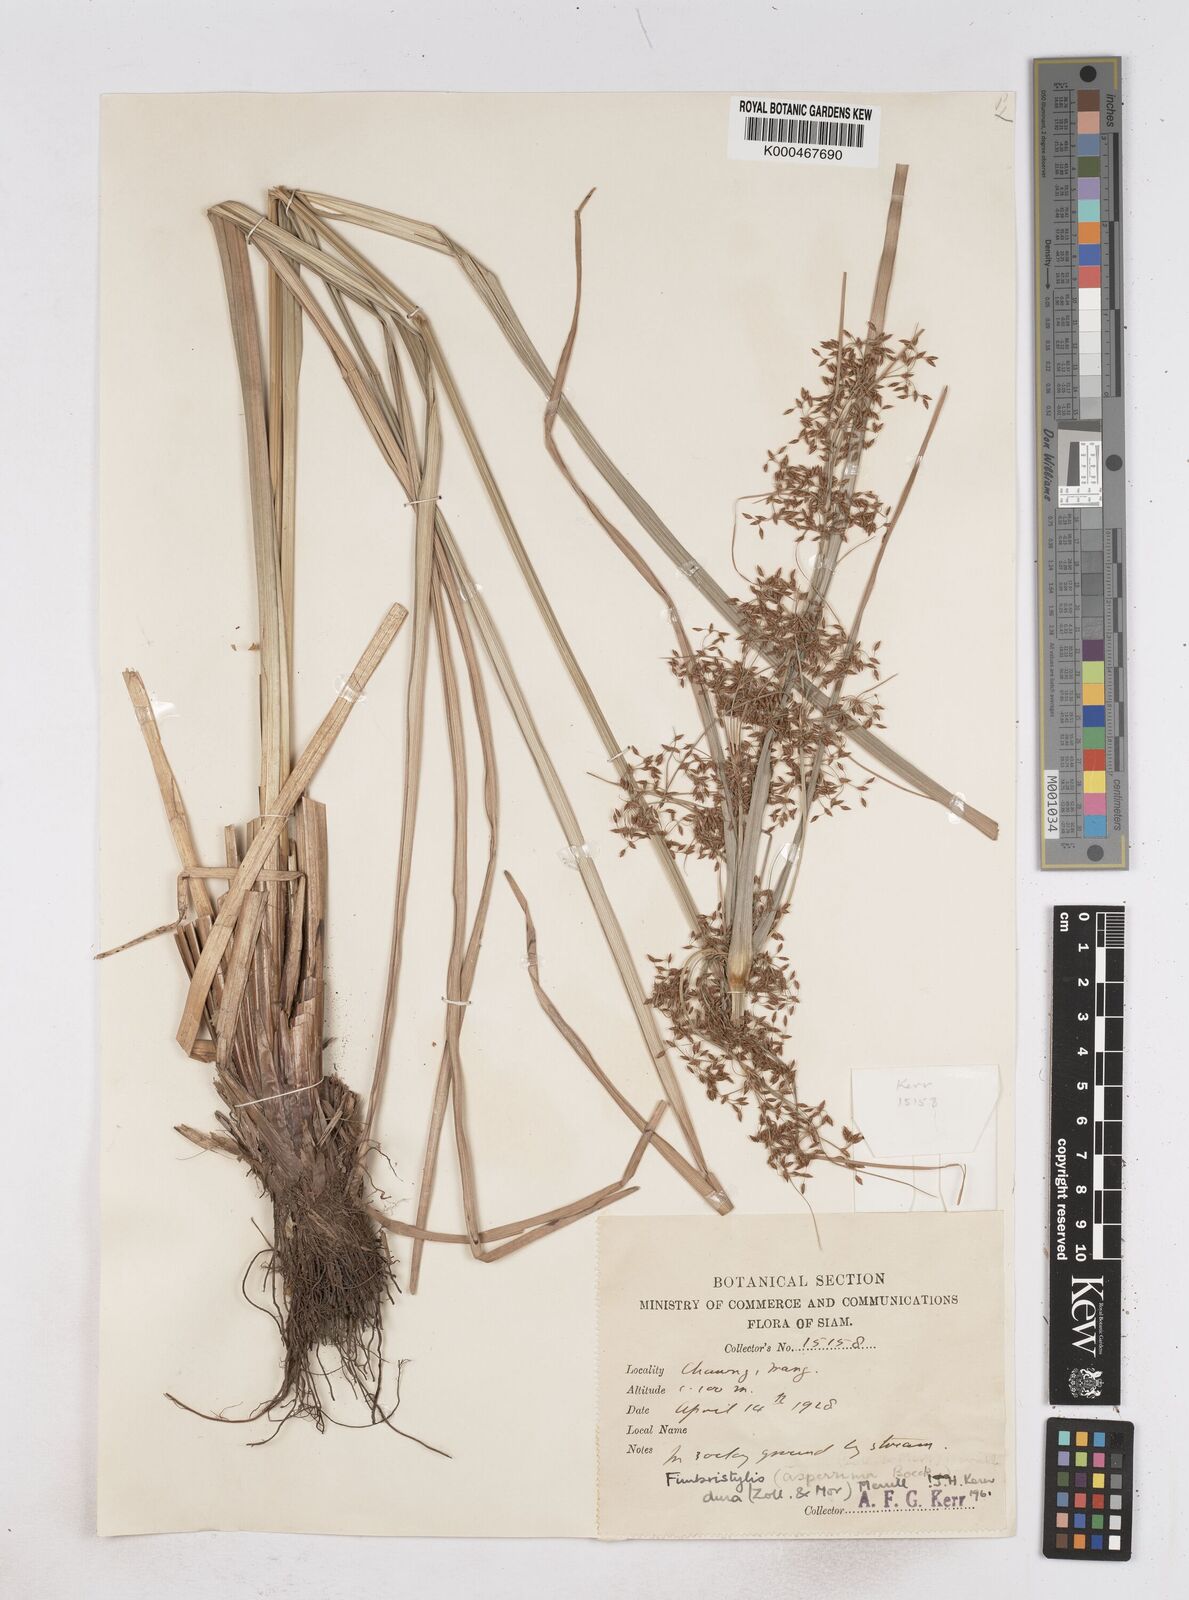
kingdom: Plantae
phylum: Tracheophyta
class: Liliopsida
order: Poales
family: Cyperaceae
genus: Fimbristylis
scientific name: Fimbristylis dura
